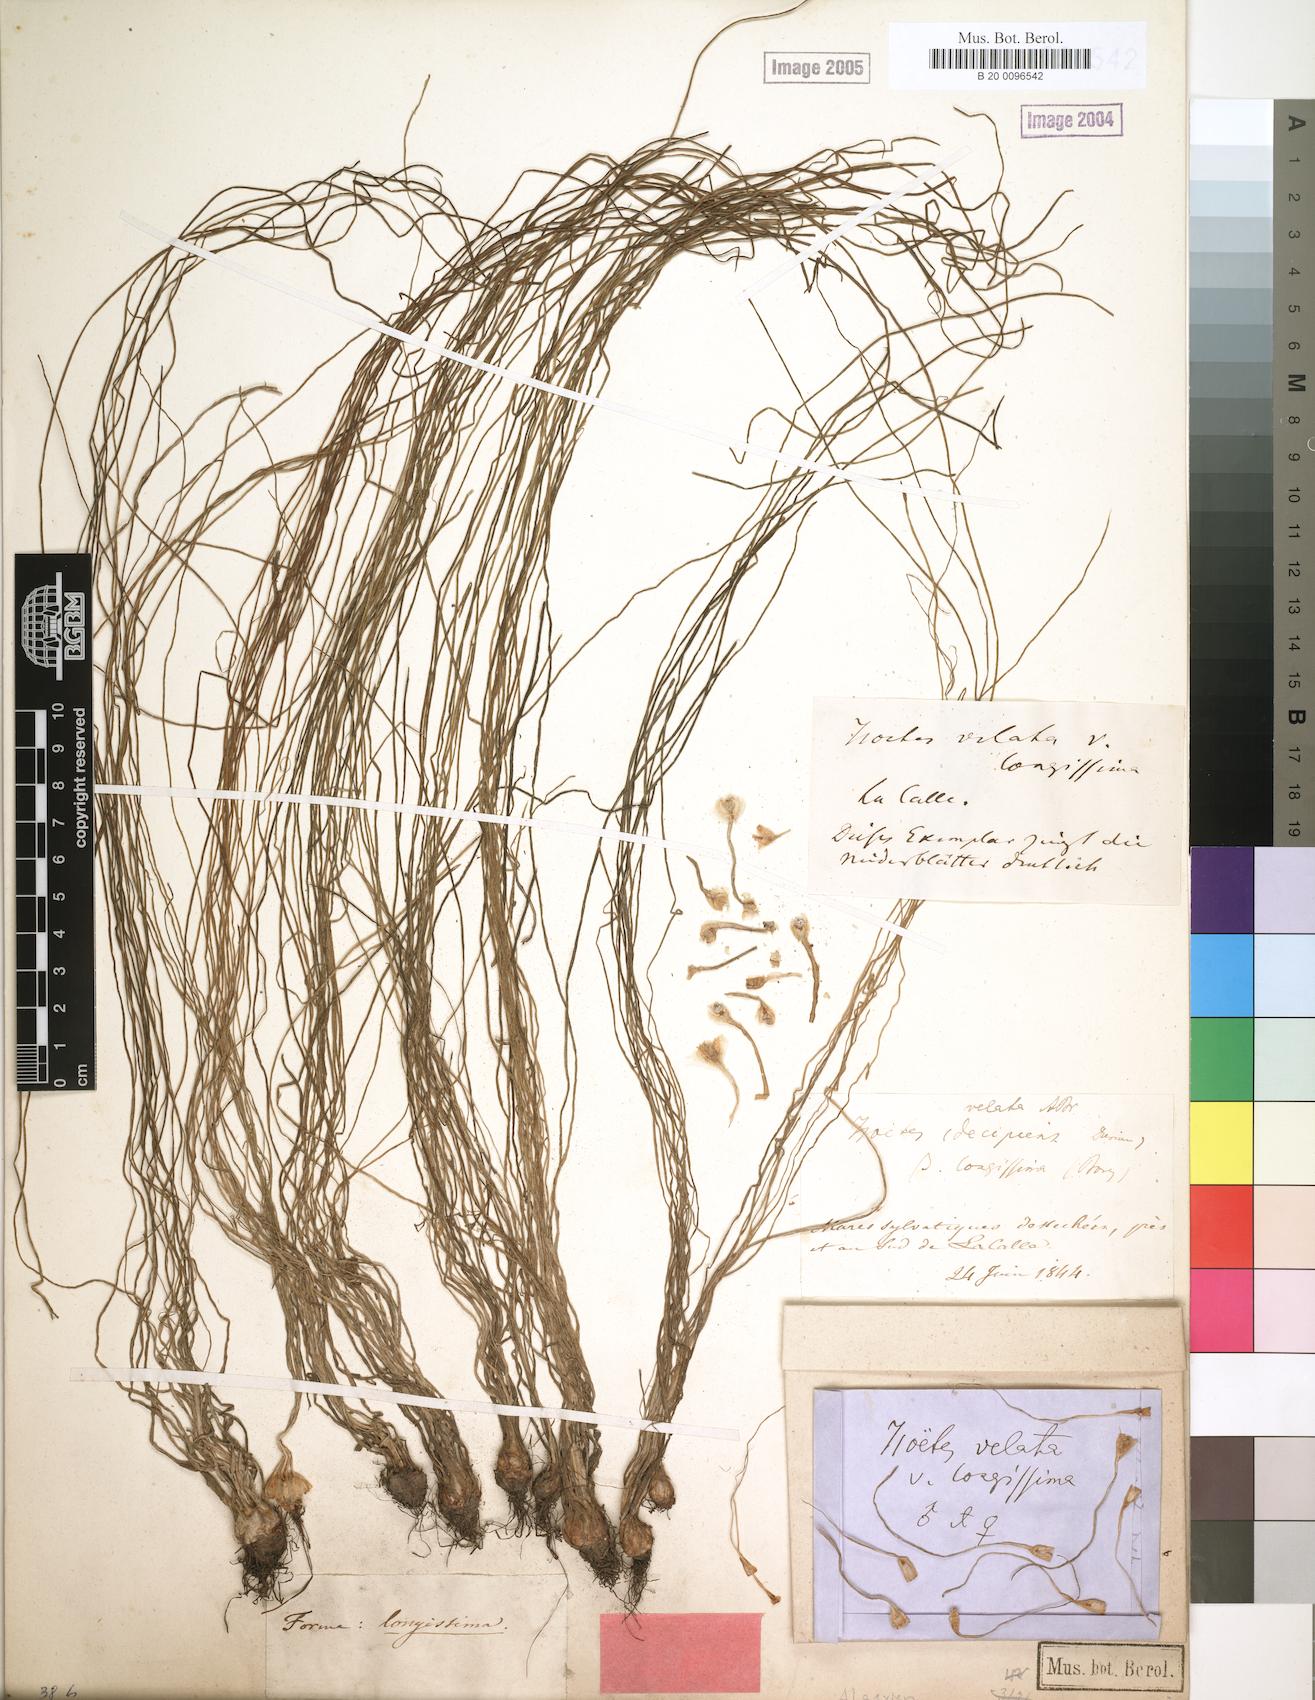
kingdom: Plantae
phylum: Tracheophyta
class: Lycopodiopsida
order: Isoetales
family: Isoetaceae
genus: Isoetes
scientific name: Isoetes longissima
